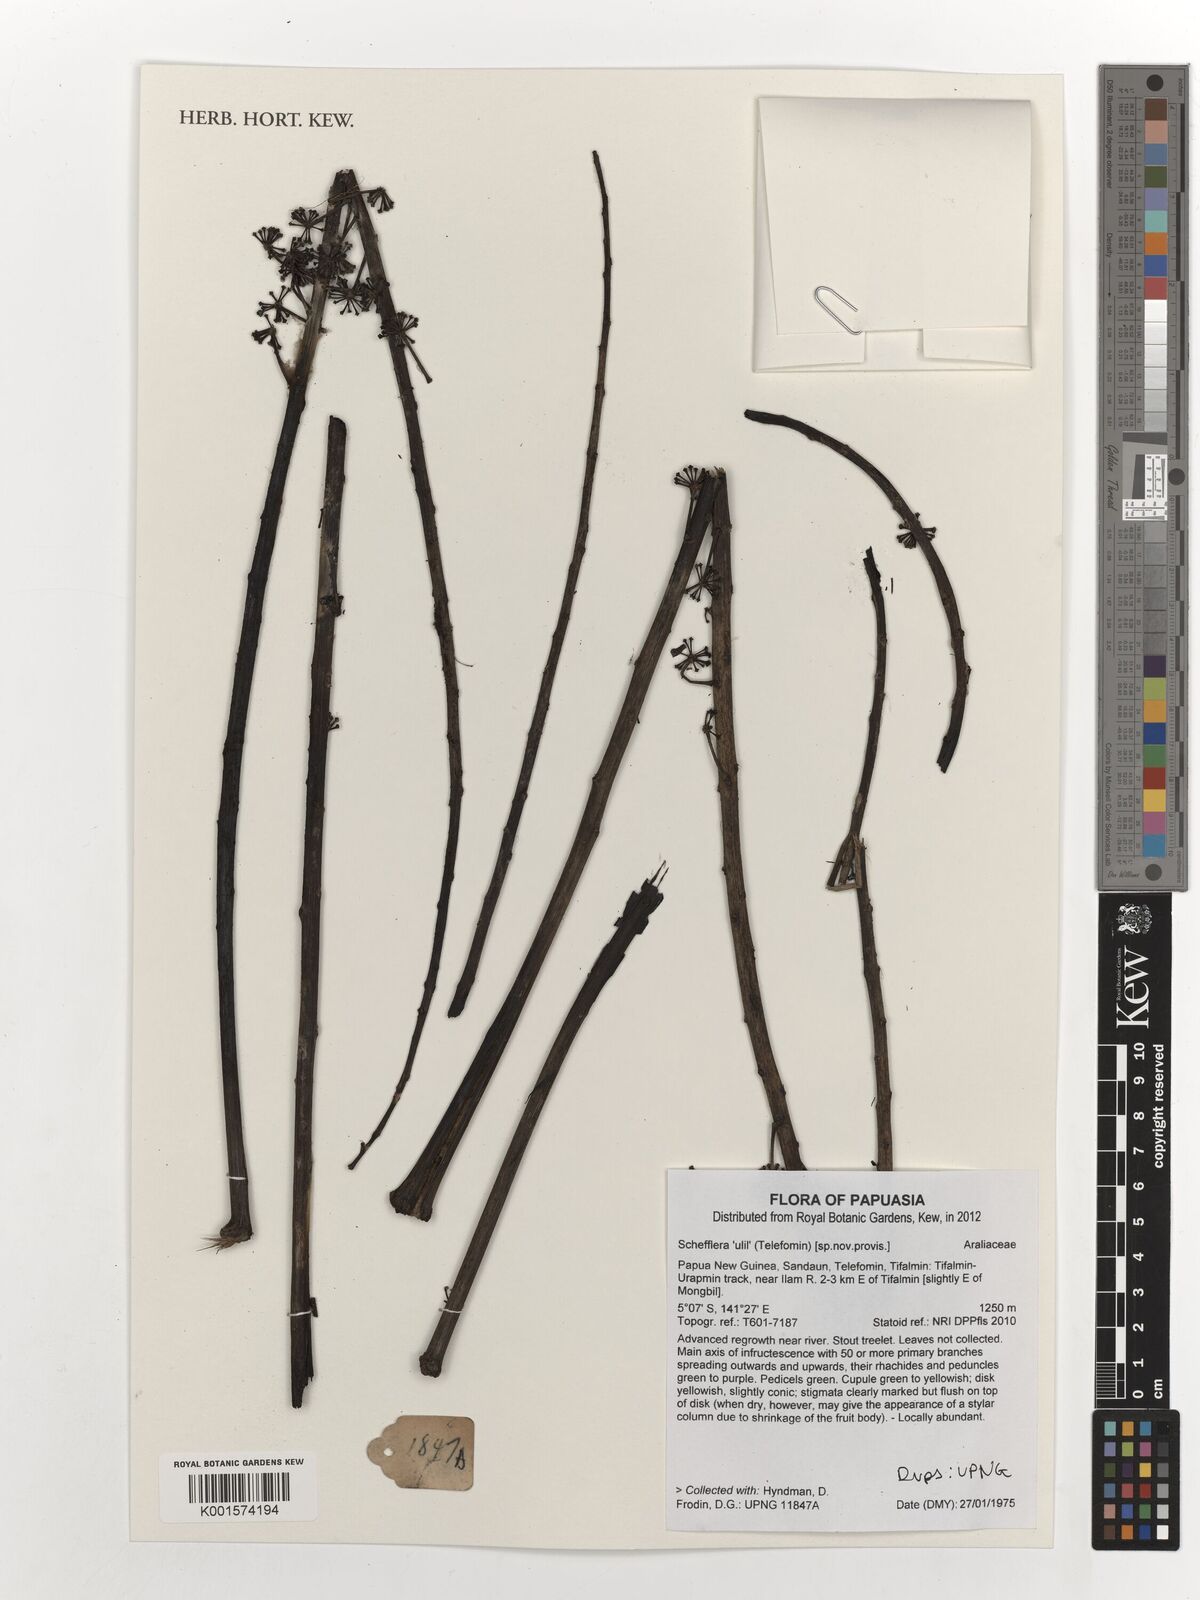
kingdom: Plantae
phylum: Tracheophyta
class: Magnoliopsida
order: Apiales
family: Araliaceae
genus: Schefflera
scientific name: Schefflera
